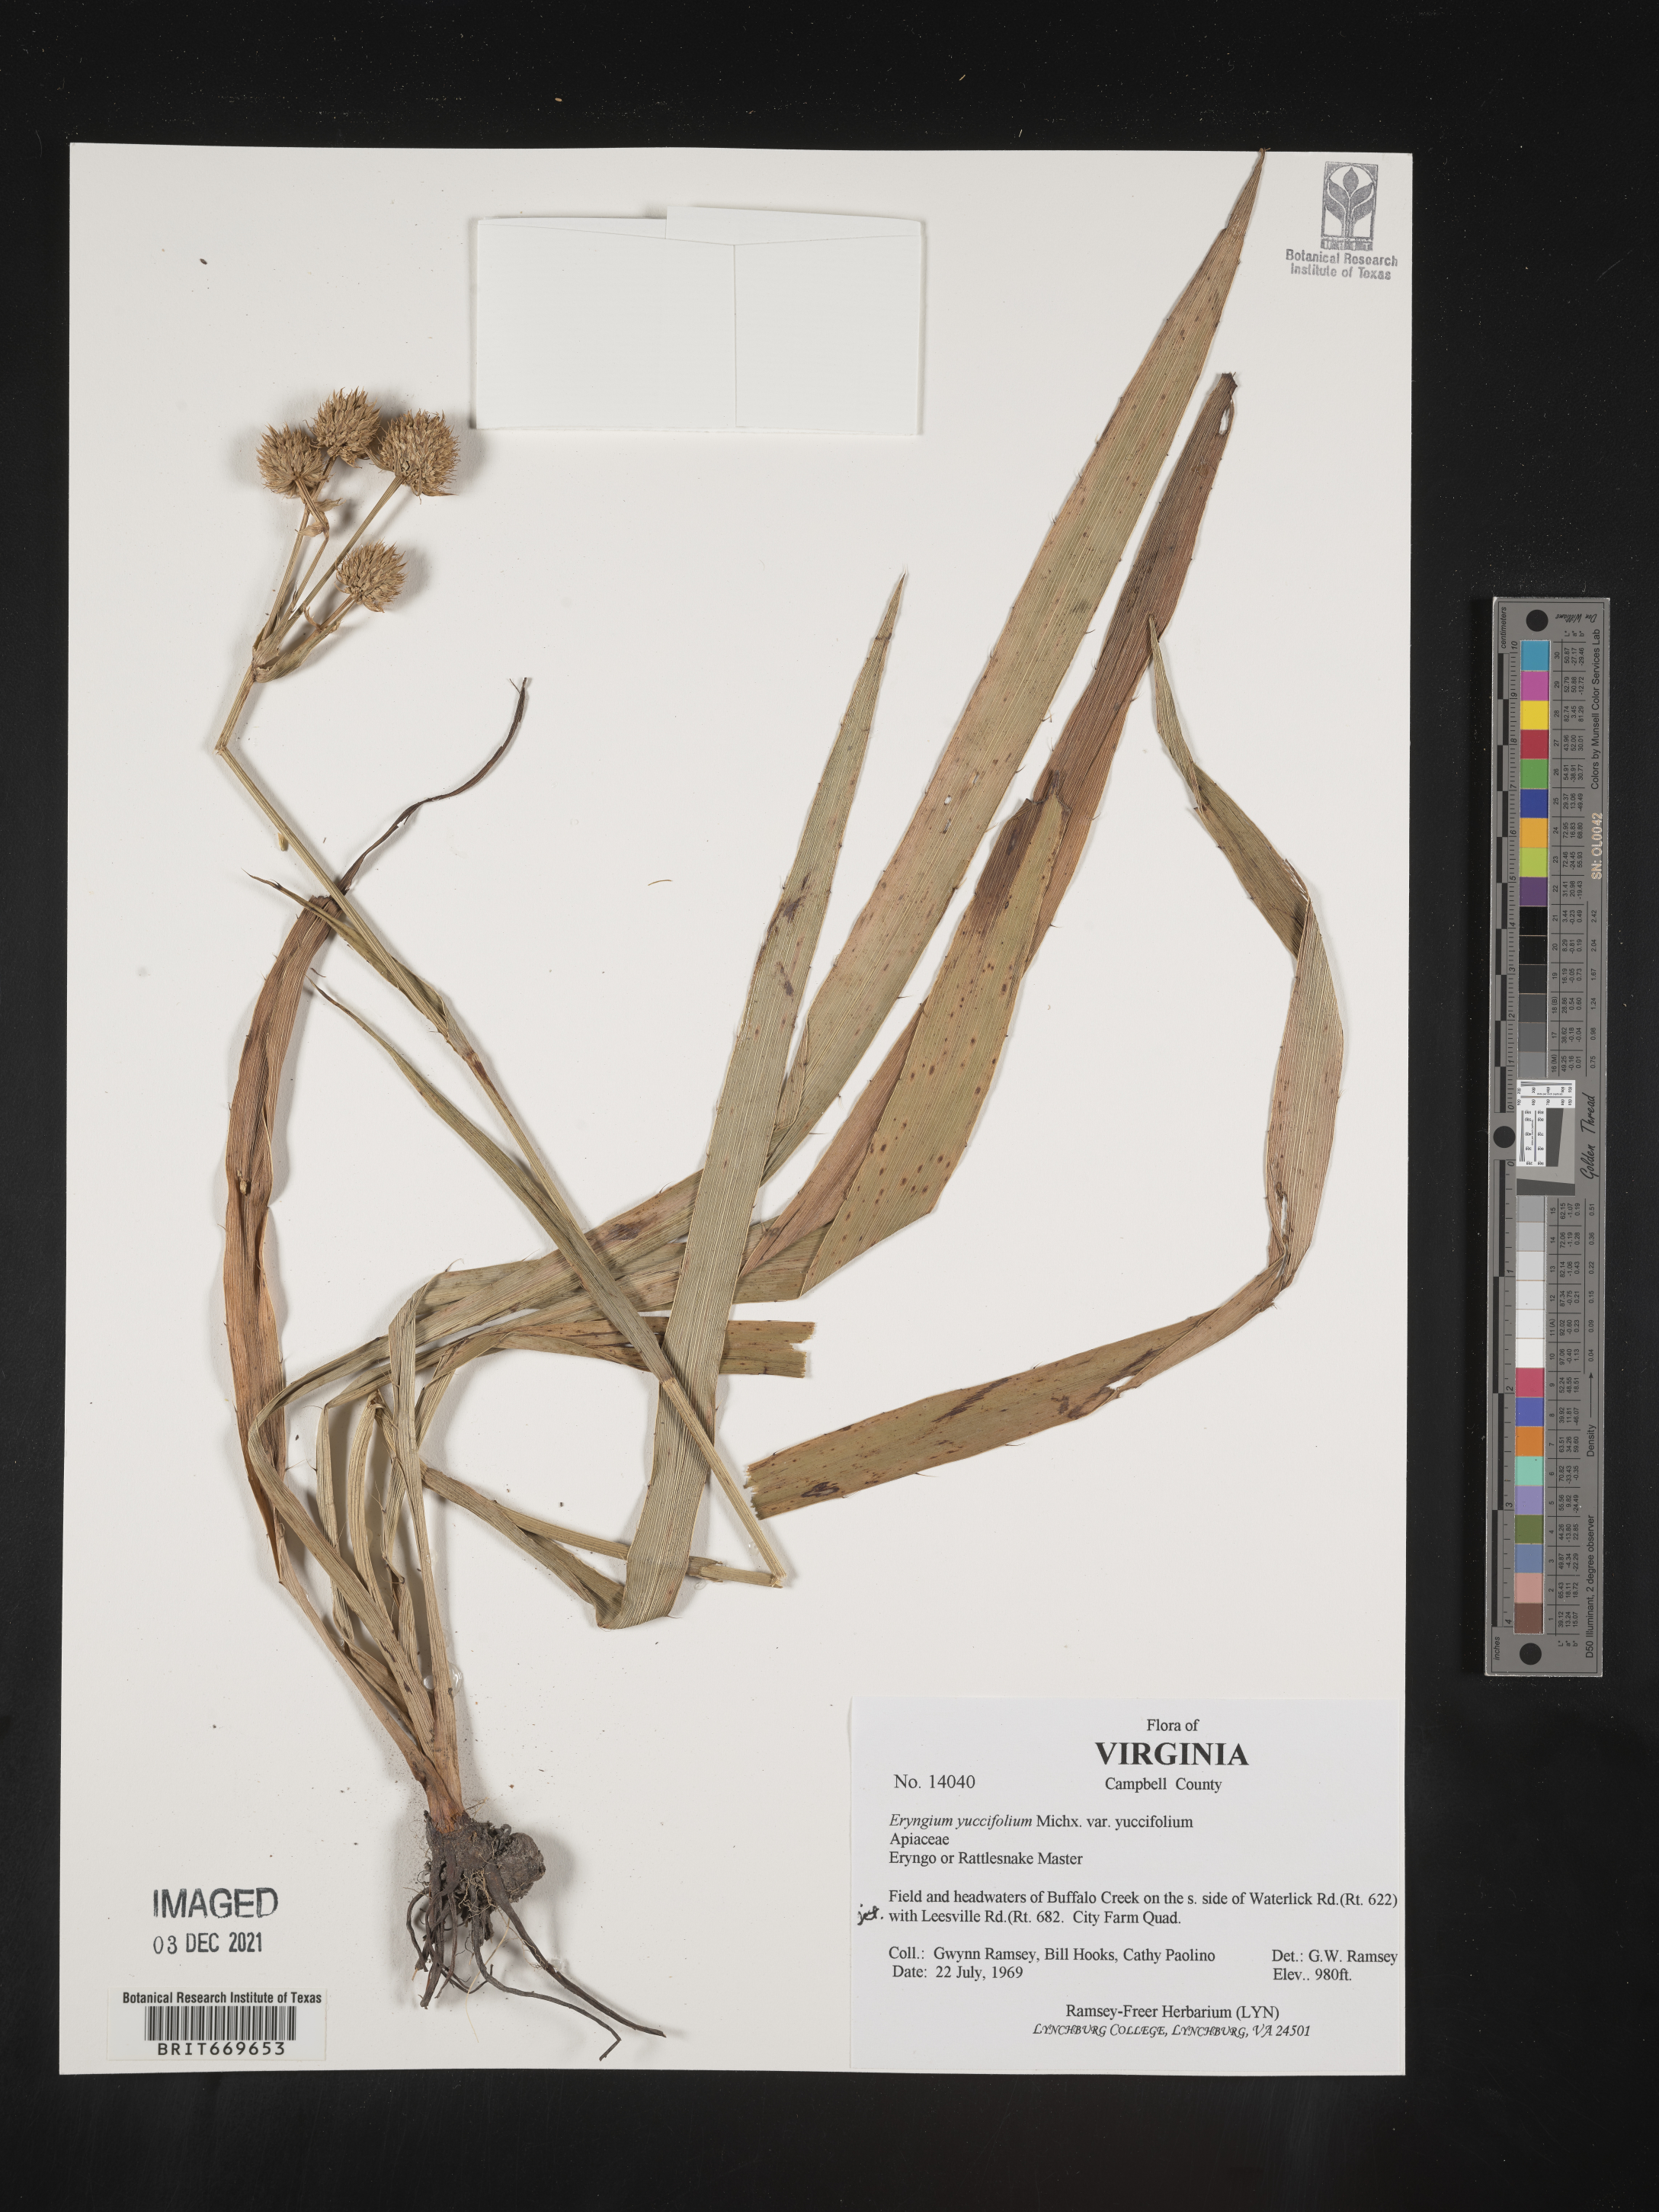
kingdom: Plantae
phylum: Tracheophyta
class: Magnoliopsida
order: Apiales
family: Apiaceae
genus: Eryngium
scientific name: Eryngium yuccifolium
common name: Button eryngo
